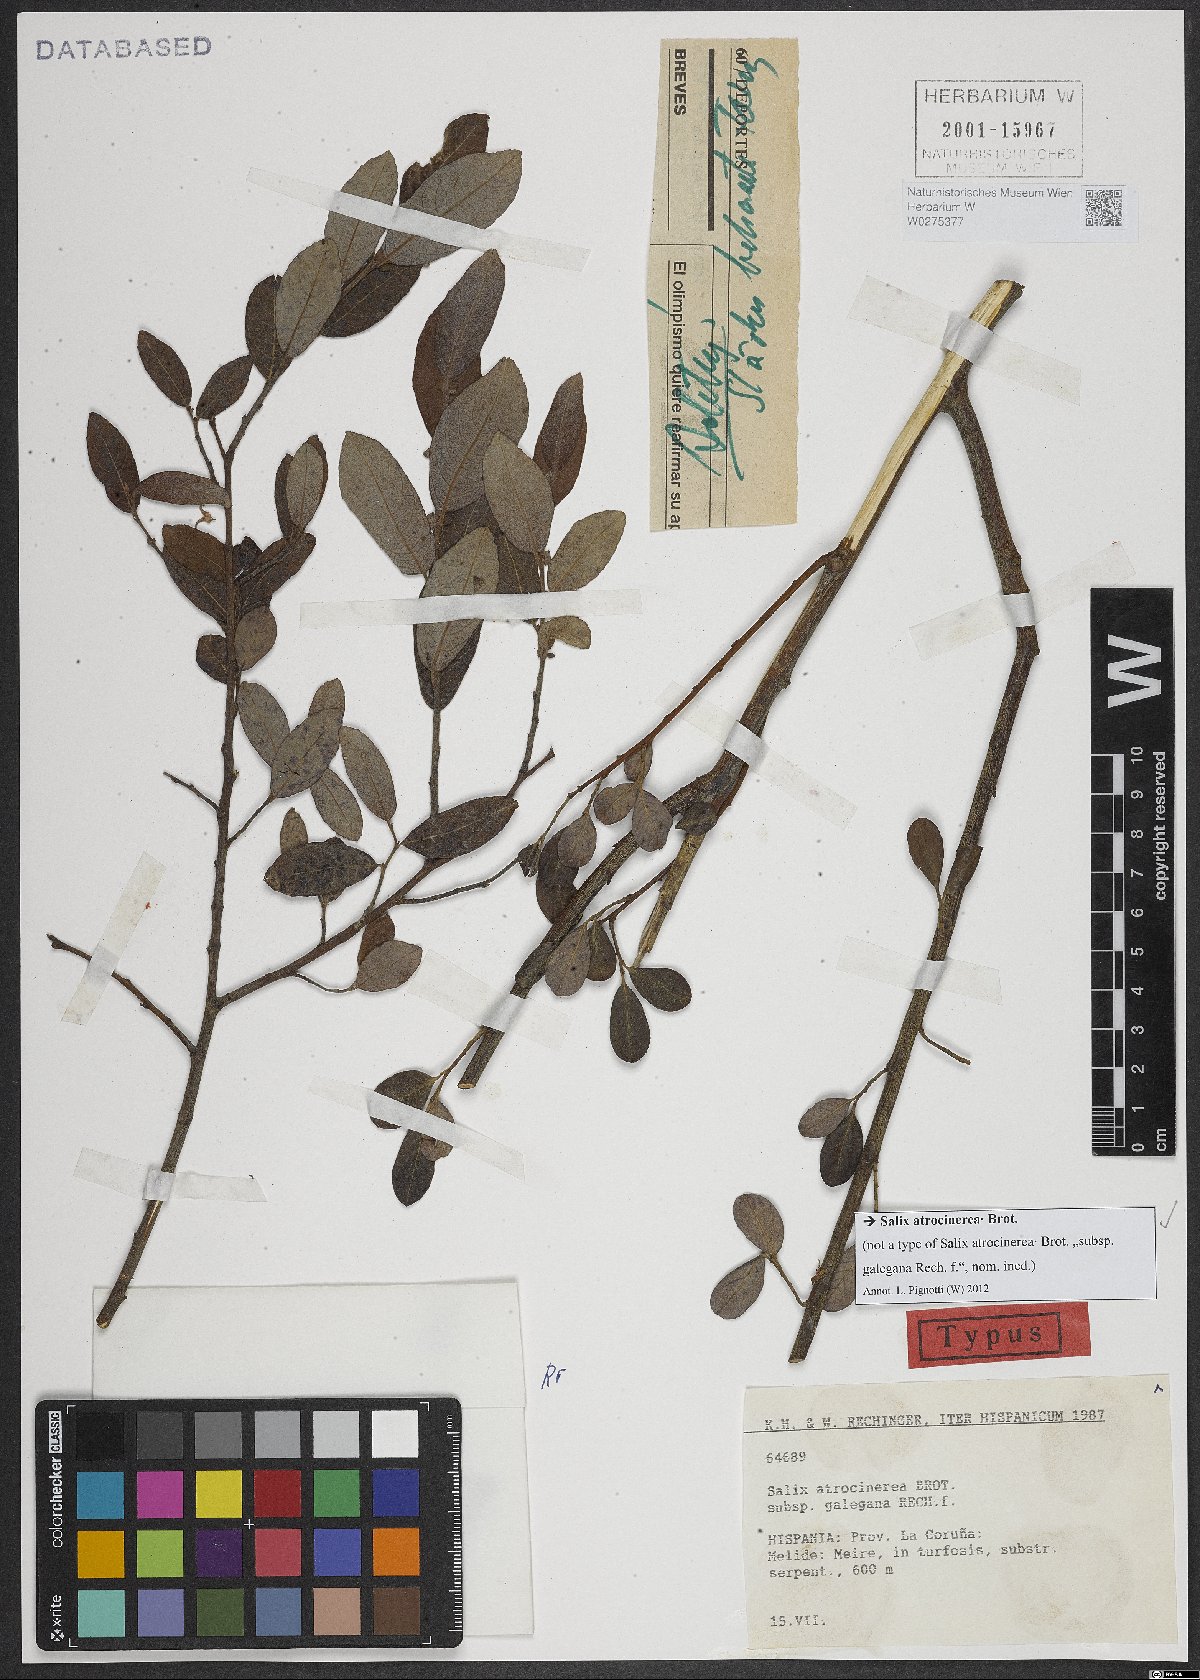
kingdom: Plantae
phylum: Tracheophyta
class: Magnoliopsida
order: Malpighiales
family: Salicaceae
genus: Salix
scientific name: Salix atrocinerea
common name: Rusty willow
